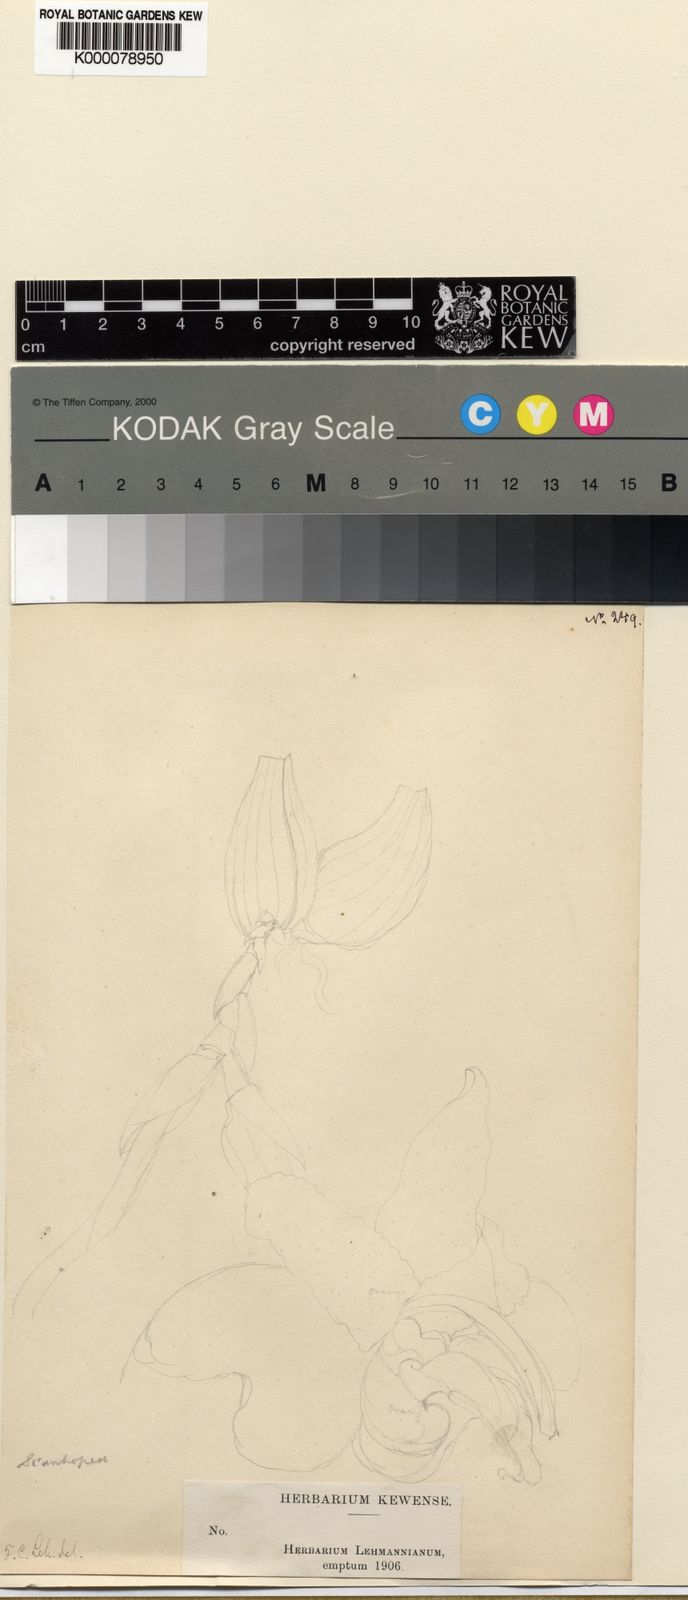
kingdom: Plantae
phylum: Tracheophyta
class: Liliopsida
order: Asparagales
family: Orchidaceae
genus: Stanhopea
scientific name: Stanhopea
